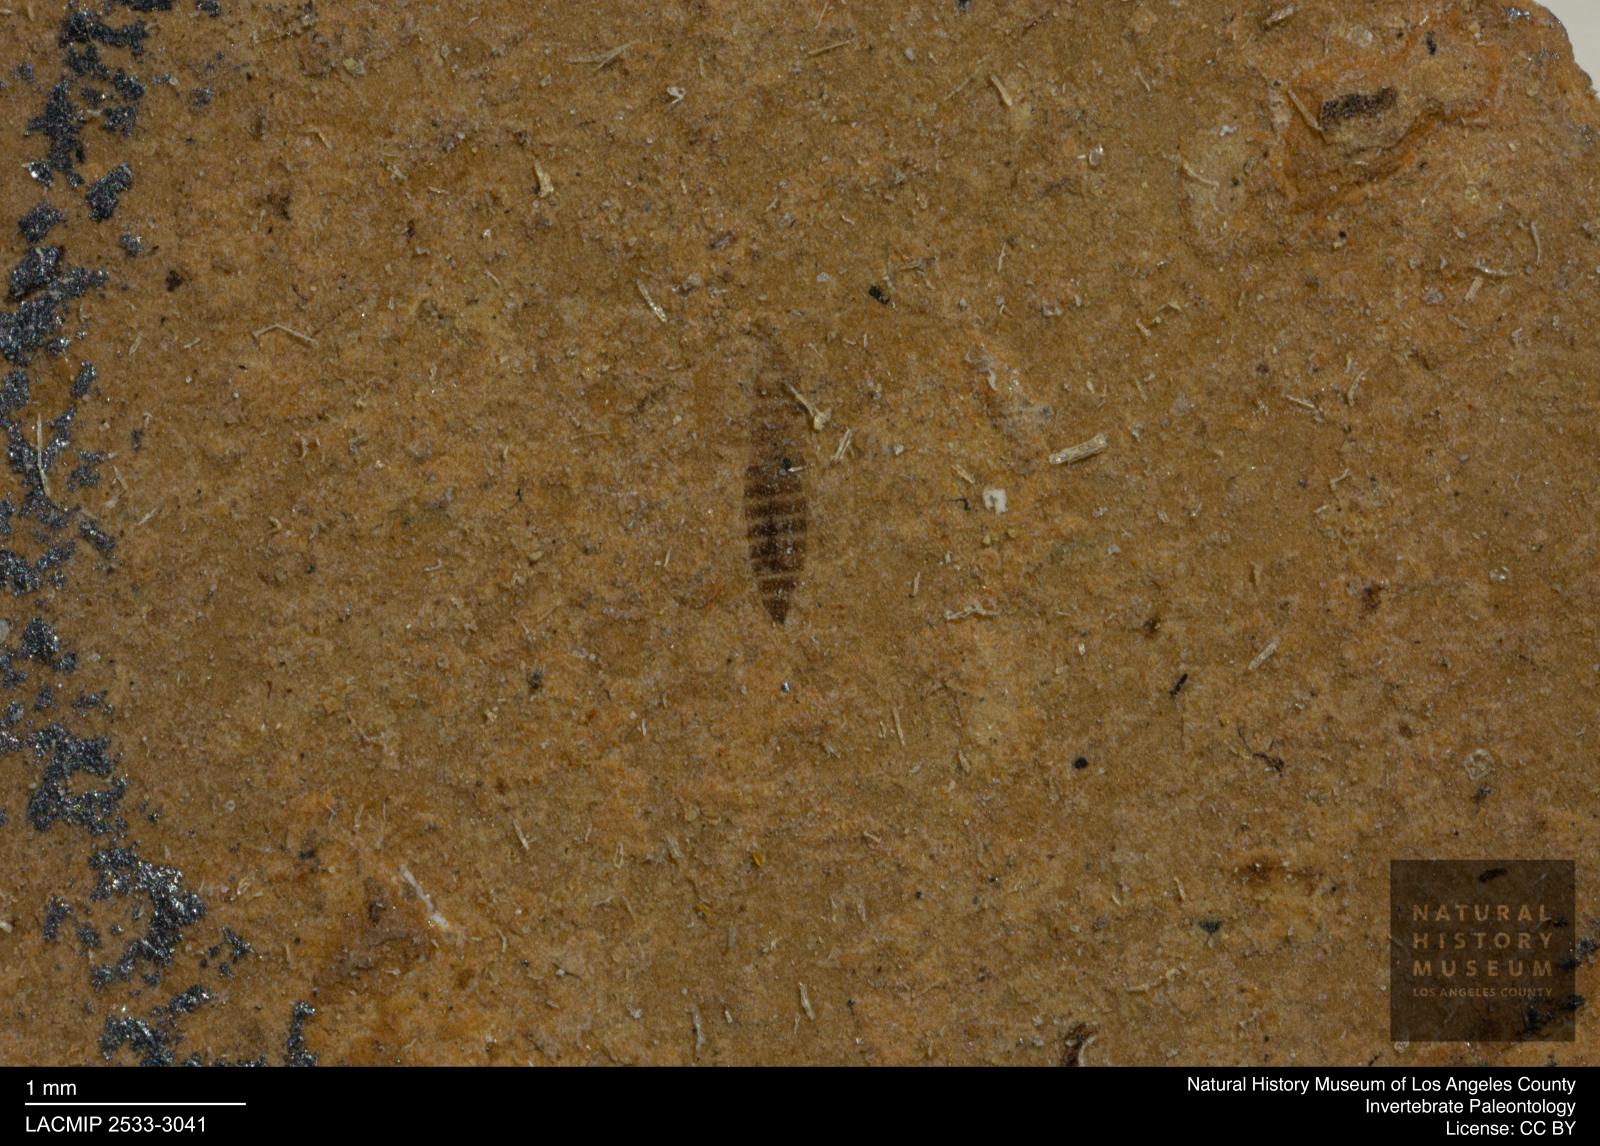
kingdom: Animalia
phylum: Arthropoda
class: Insecta
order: Thysanoptera
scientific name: Thysanoptera
